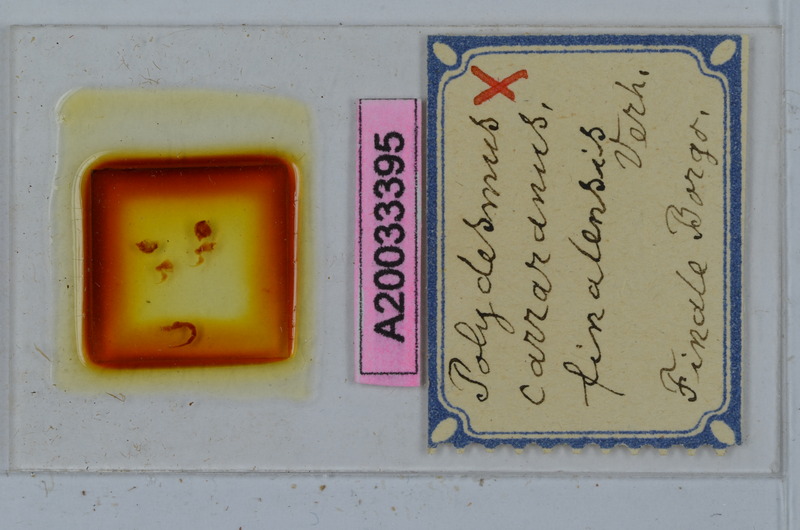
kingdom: Animalia
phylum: Arthropoda
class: Diplopoda
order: Polydesmida
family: Polydesmidae
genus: Polydesmus
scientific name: Polydesmus subulifer
